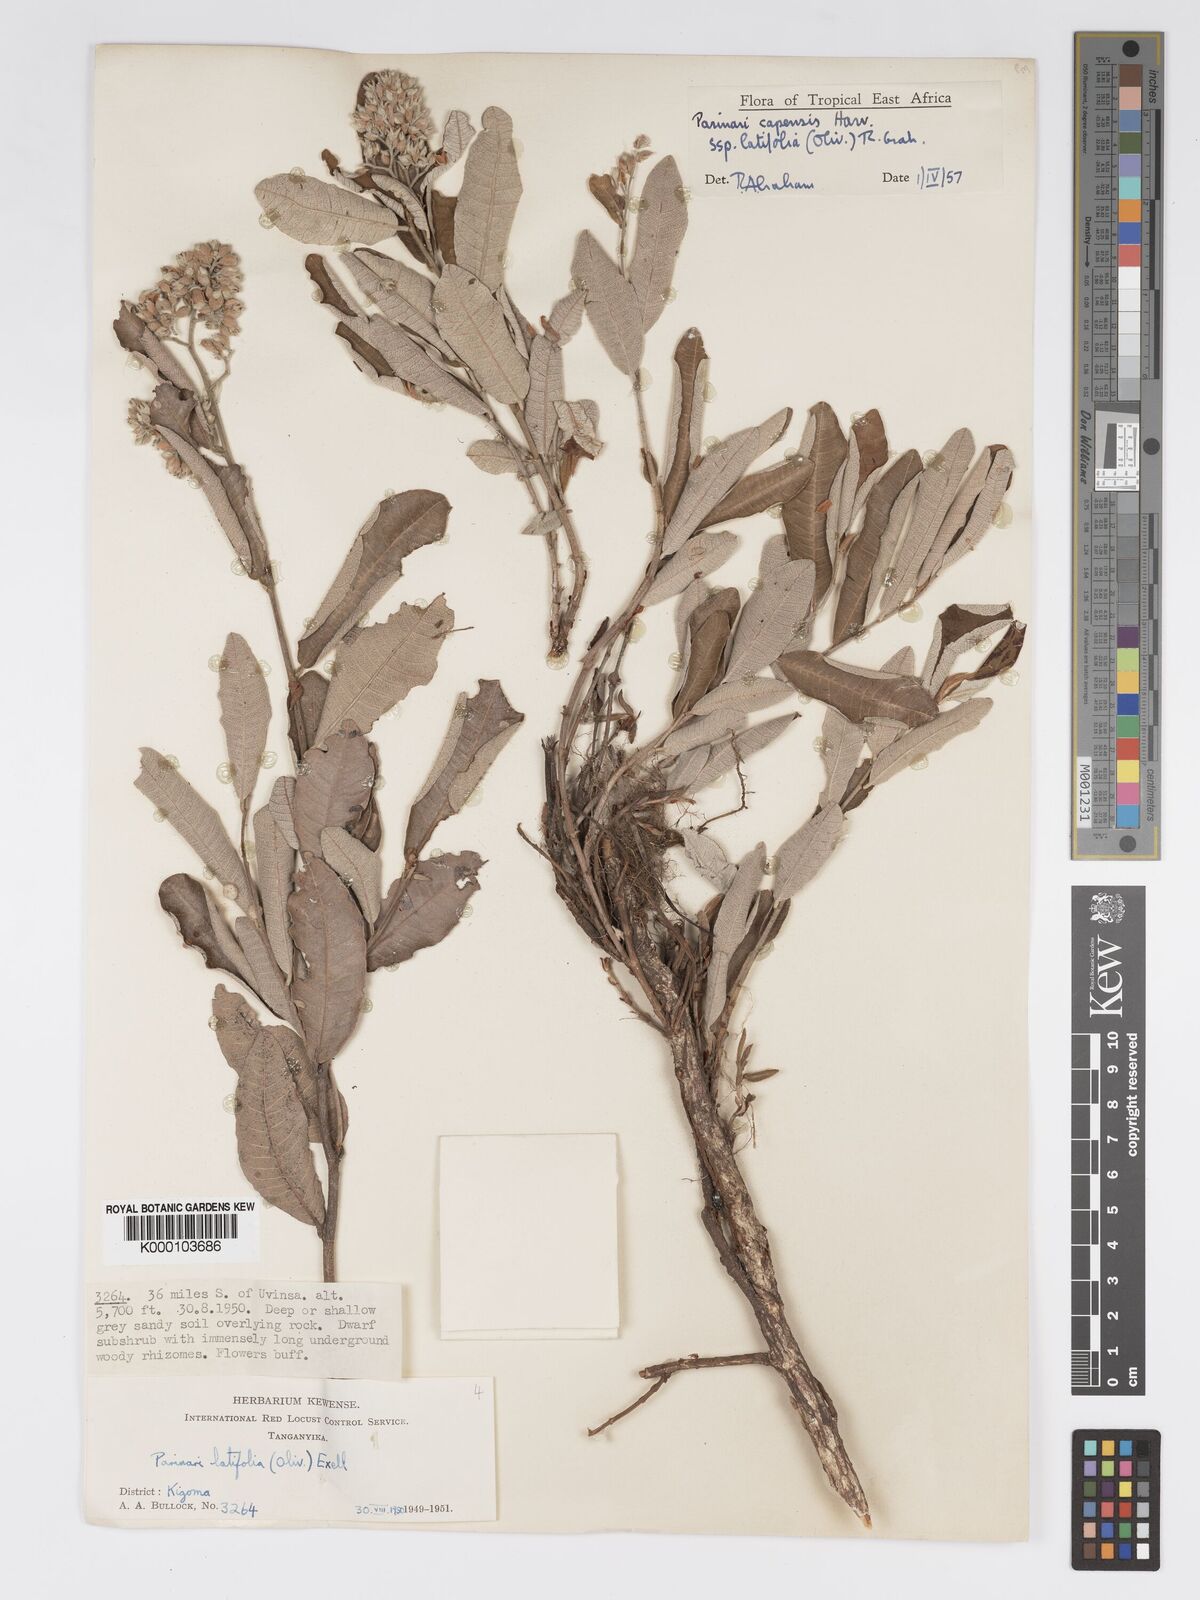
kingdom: Plantae
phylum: Tracheophyta
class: Magnoliopsida
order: Malpighiales
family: Chrysobalanaceae
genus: Parinari
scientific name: Parinari capensis
